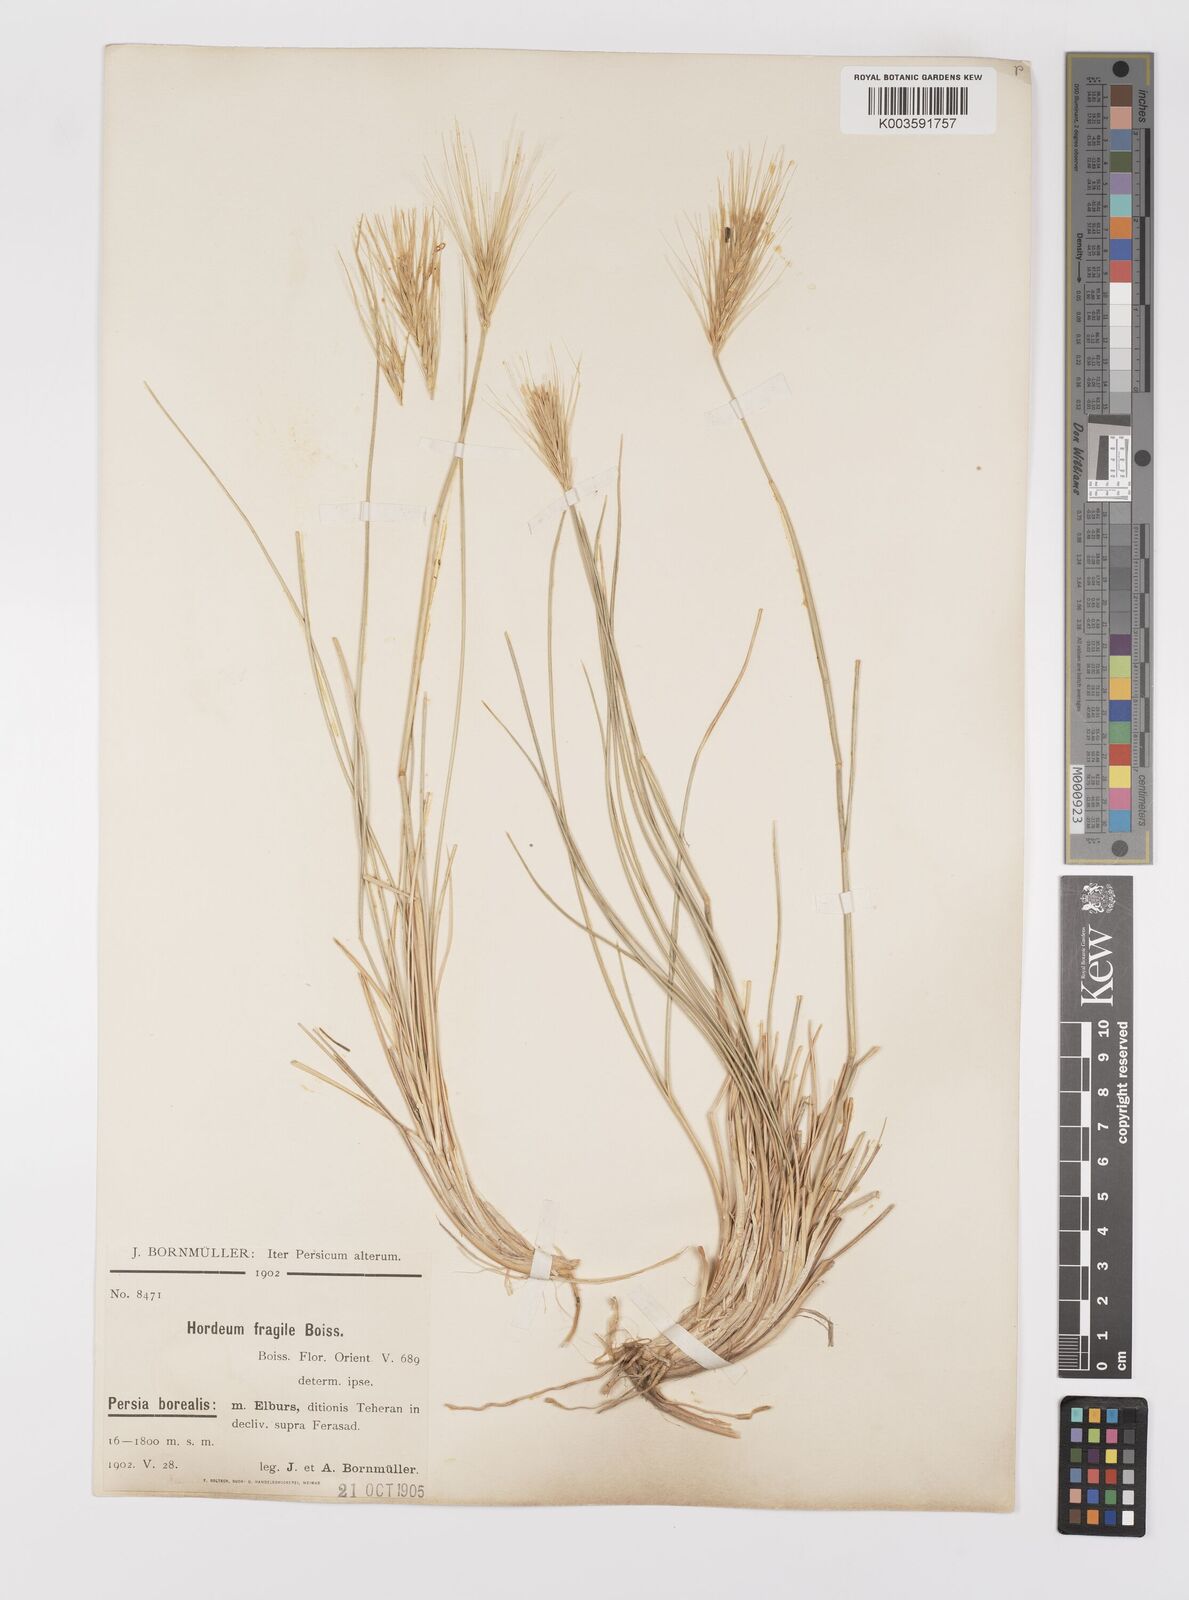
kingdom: Plantae
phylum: Tracheophyta
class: Liliopsida
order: Poales
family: Poaceae
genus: Psathyrostachys
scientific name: Psathyrostachys fragilis
